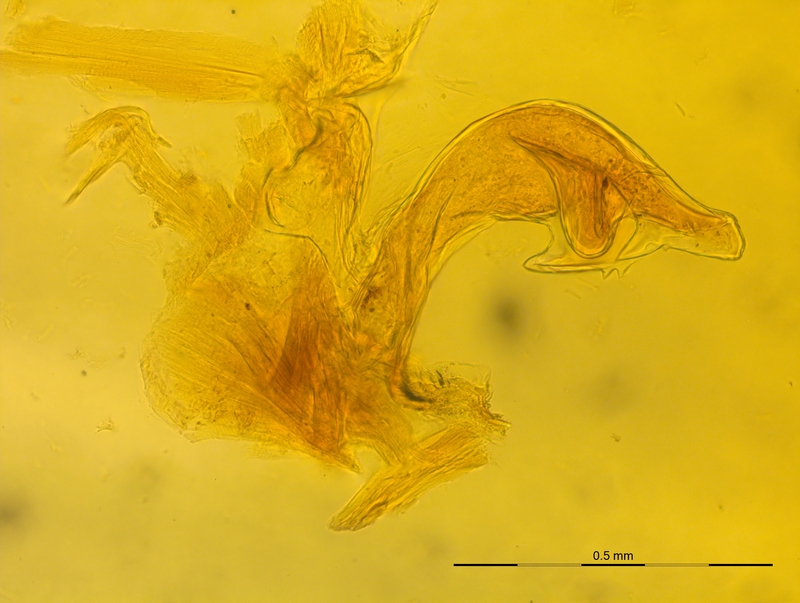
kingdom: Animalia
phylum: Arthropoda
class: Diplopoda
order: Chordeumatida
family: Craspedosomatidae
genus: Craspedosoma
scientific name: Craspedosoma rawlinsii
